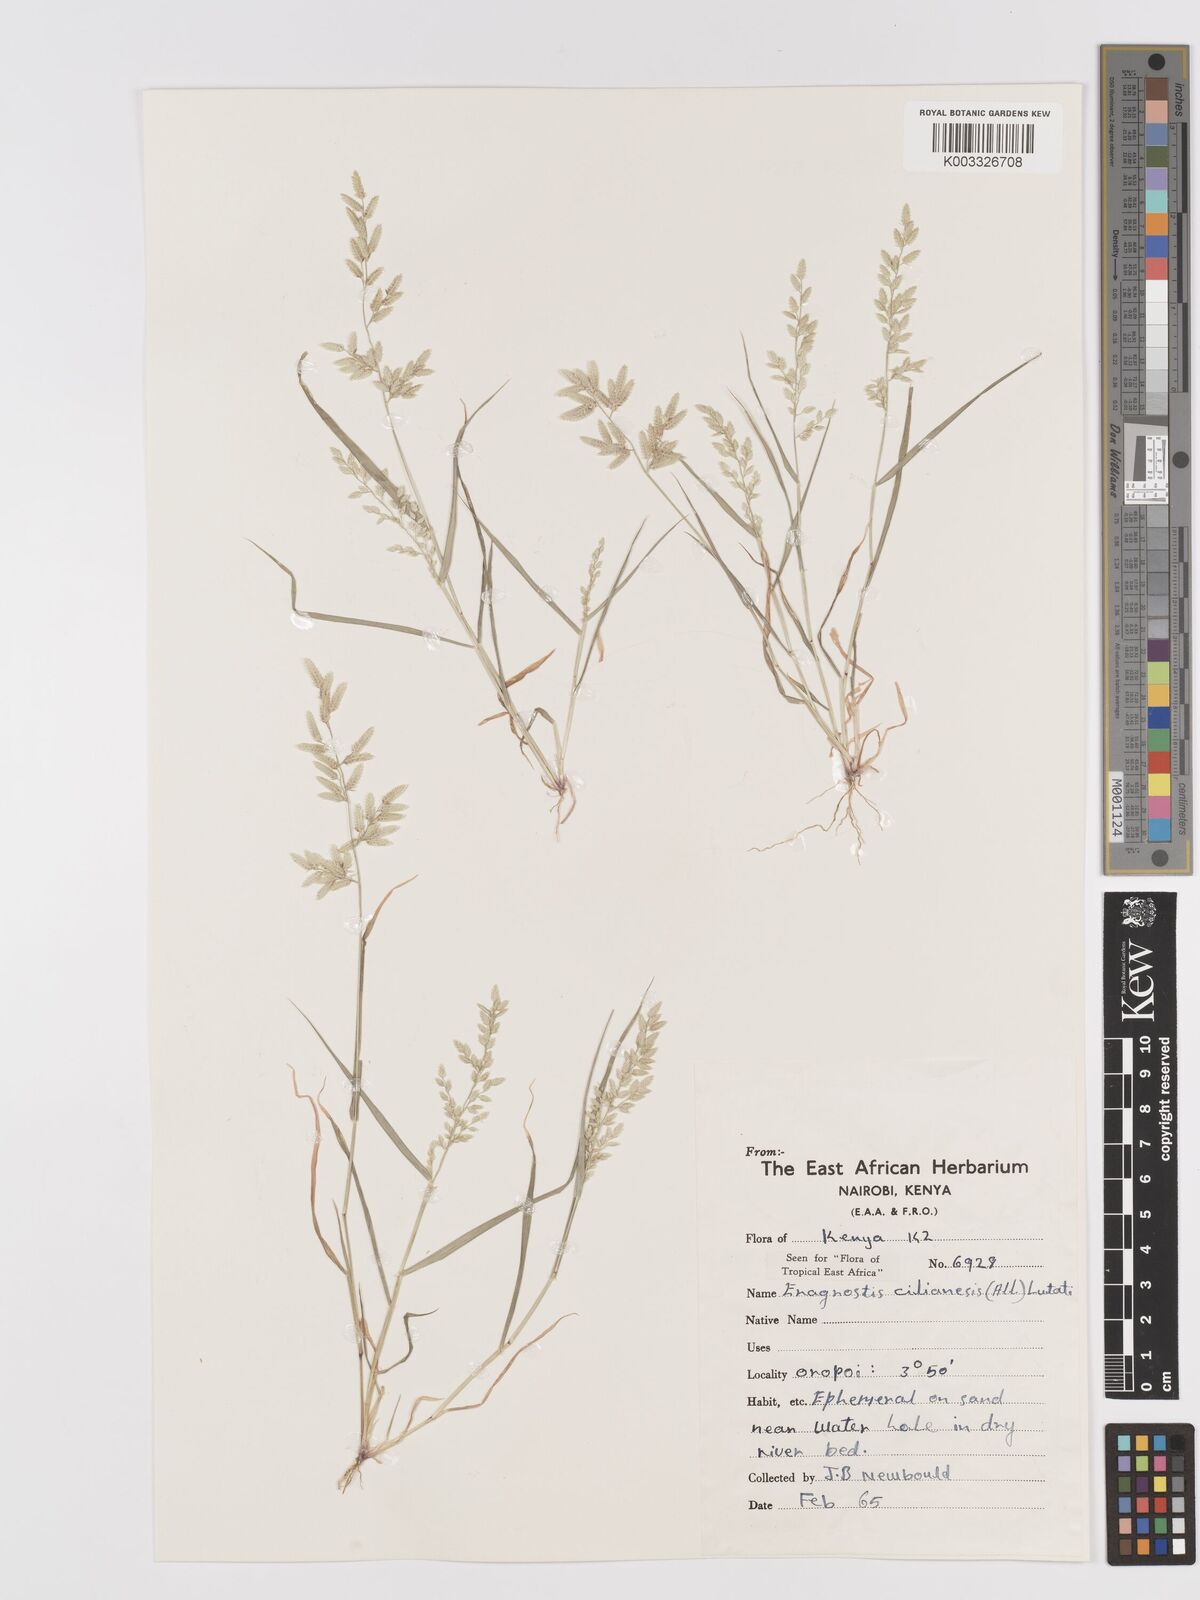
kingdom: Plantae
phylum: Tracheophyta
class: Liliopsida
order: Poales
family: Poaceae
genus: Eragrostis
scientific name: Eragrostis cilianensis
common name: Stinkgrass
